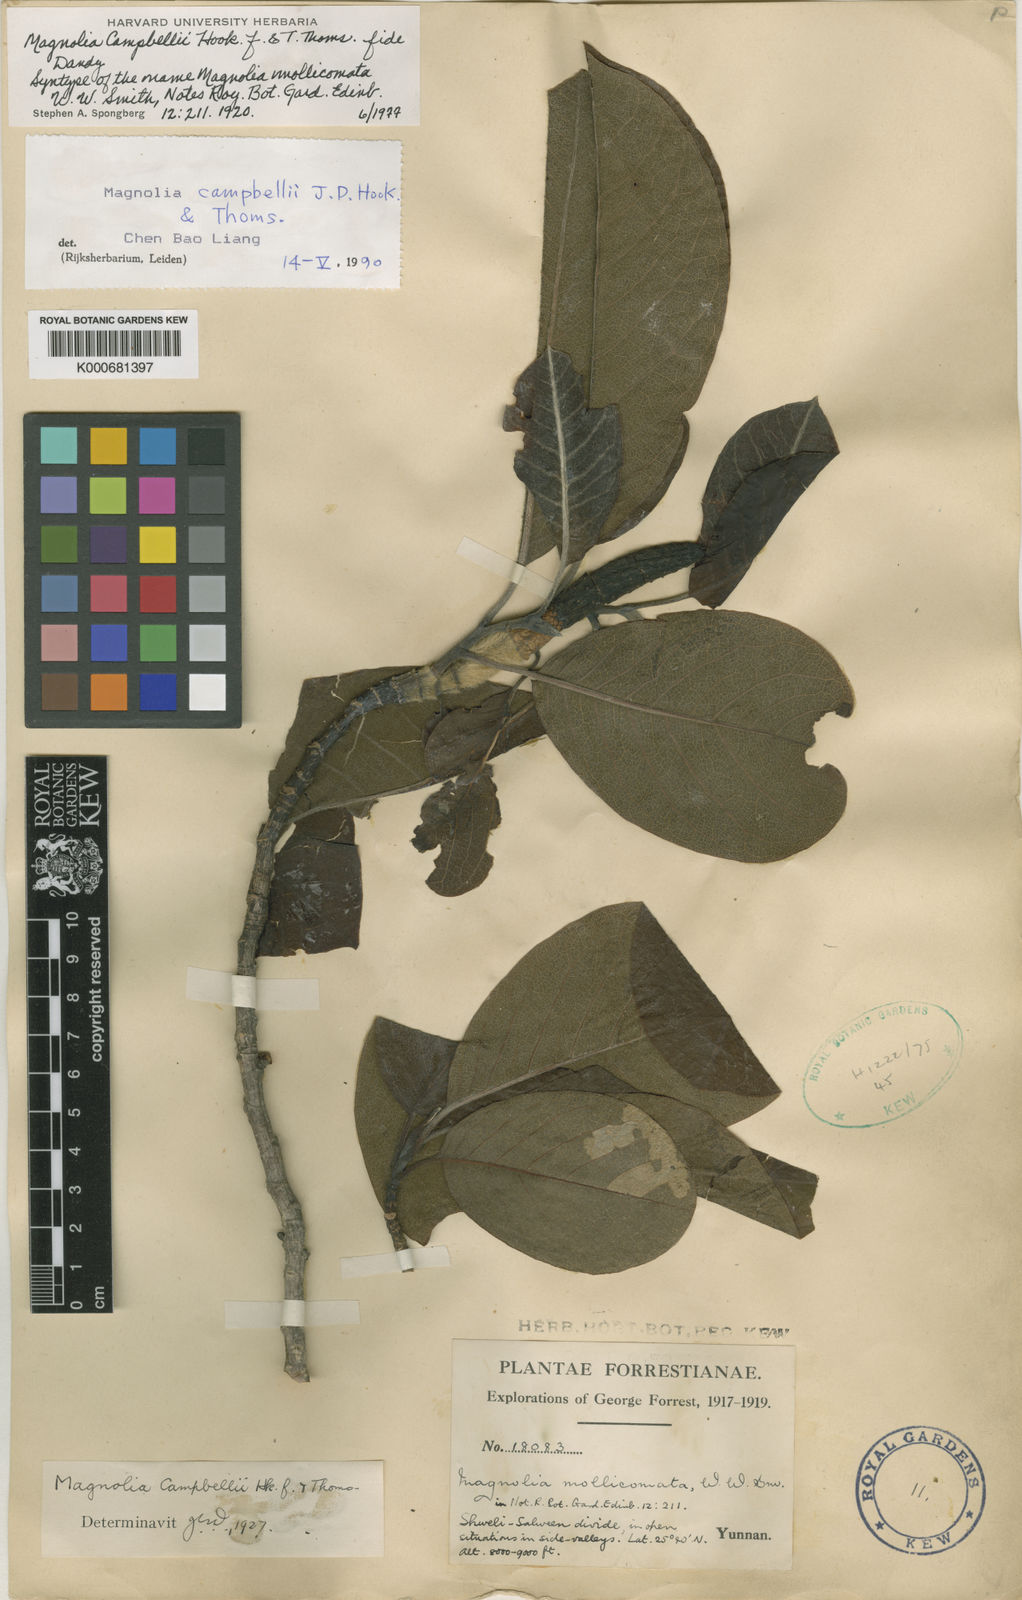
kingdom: Plantae
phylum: Tracheophyta
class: Magnoliopsida
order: Magnoliales
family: Magnoliaceae
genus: Magnolia
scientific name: Magnolia campbellii
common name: Campbell's magnolia
